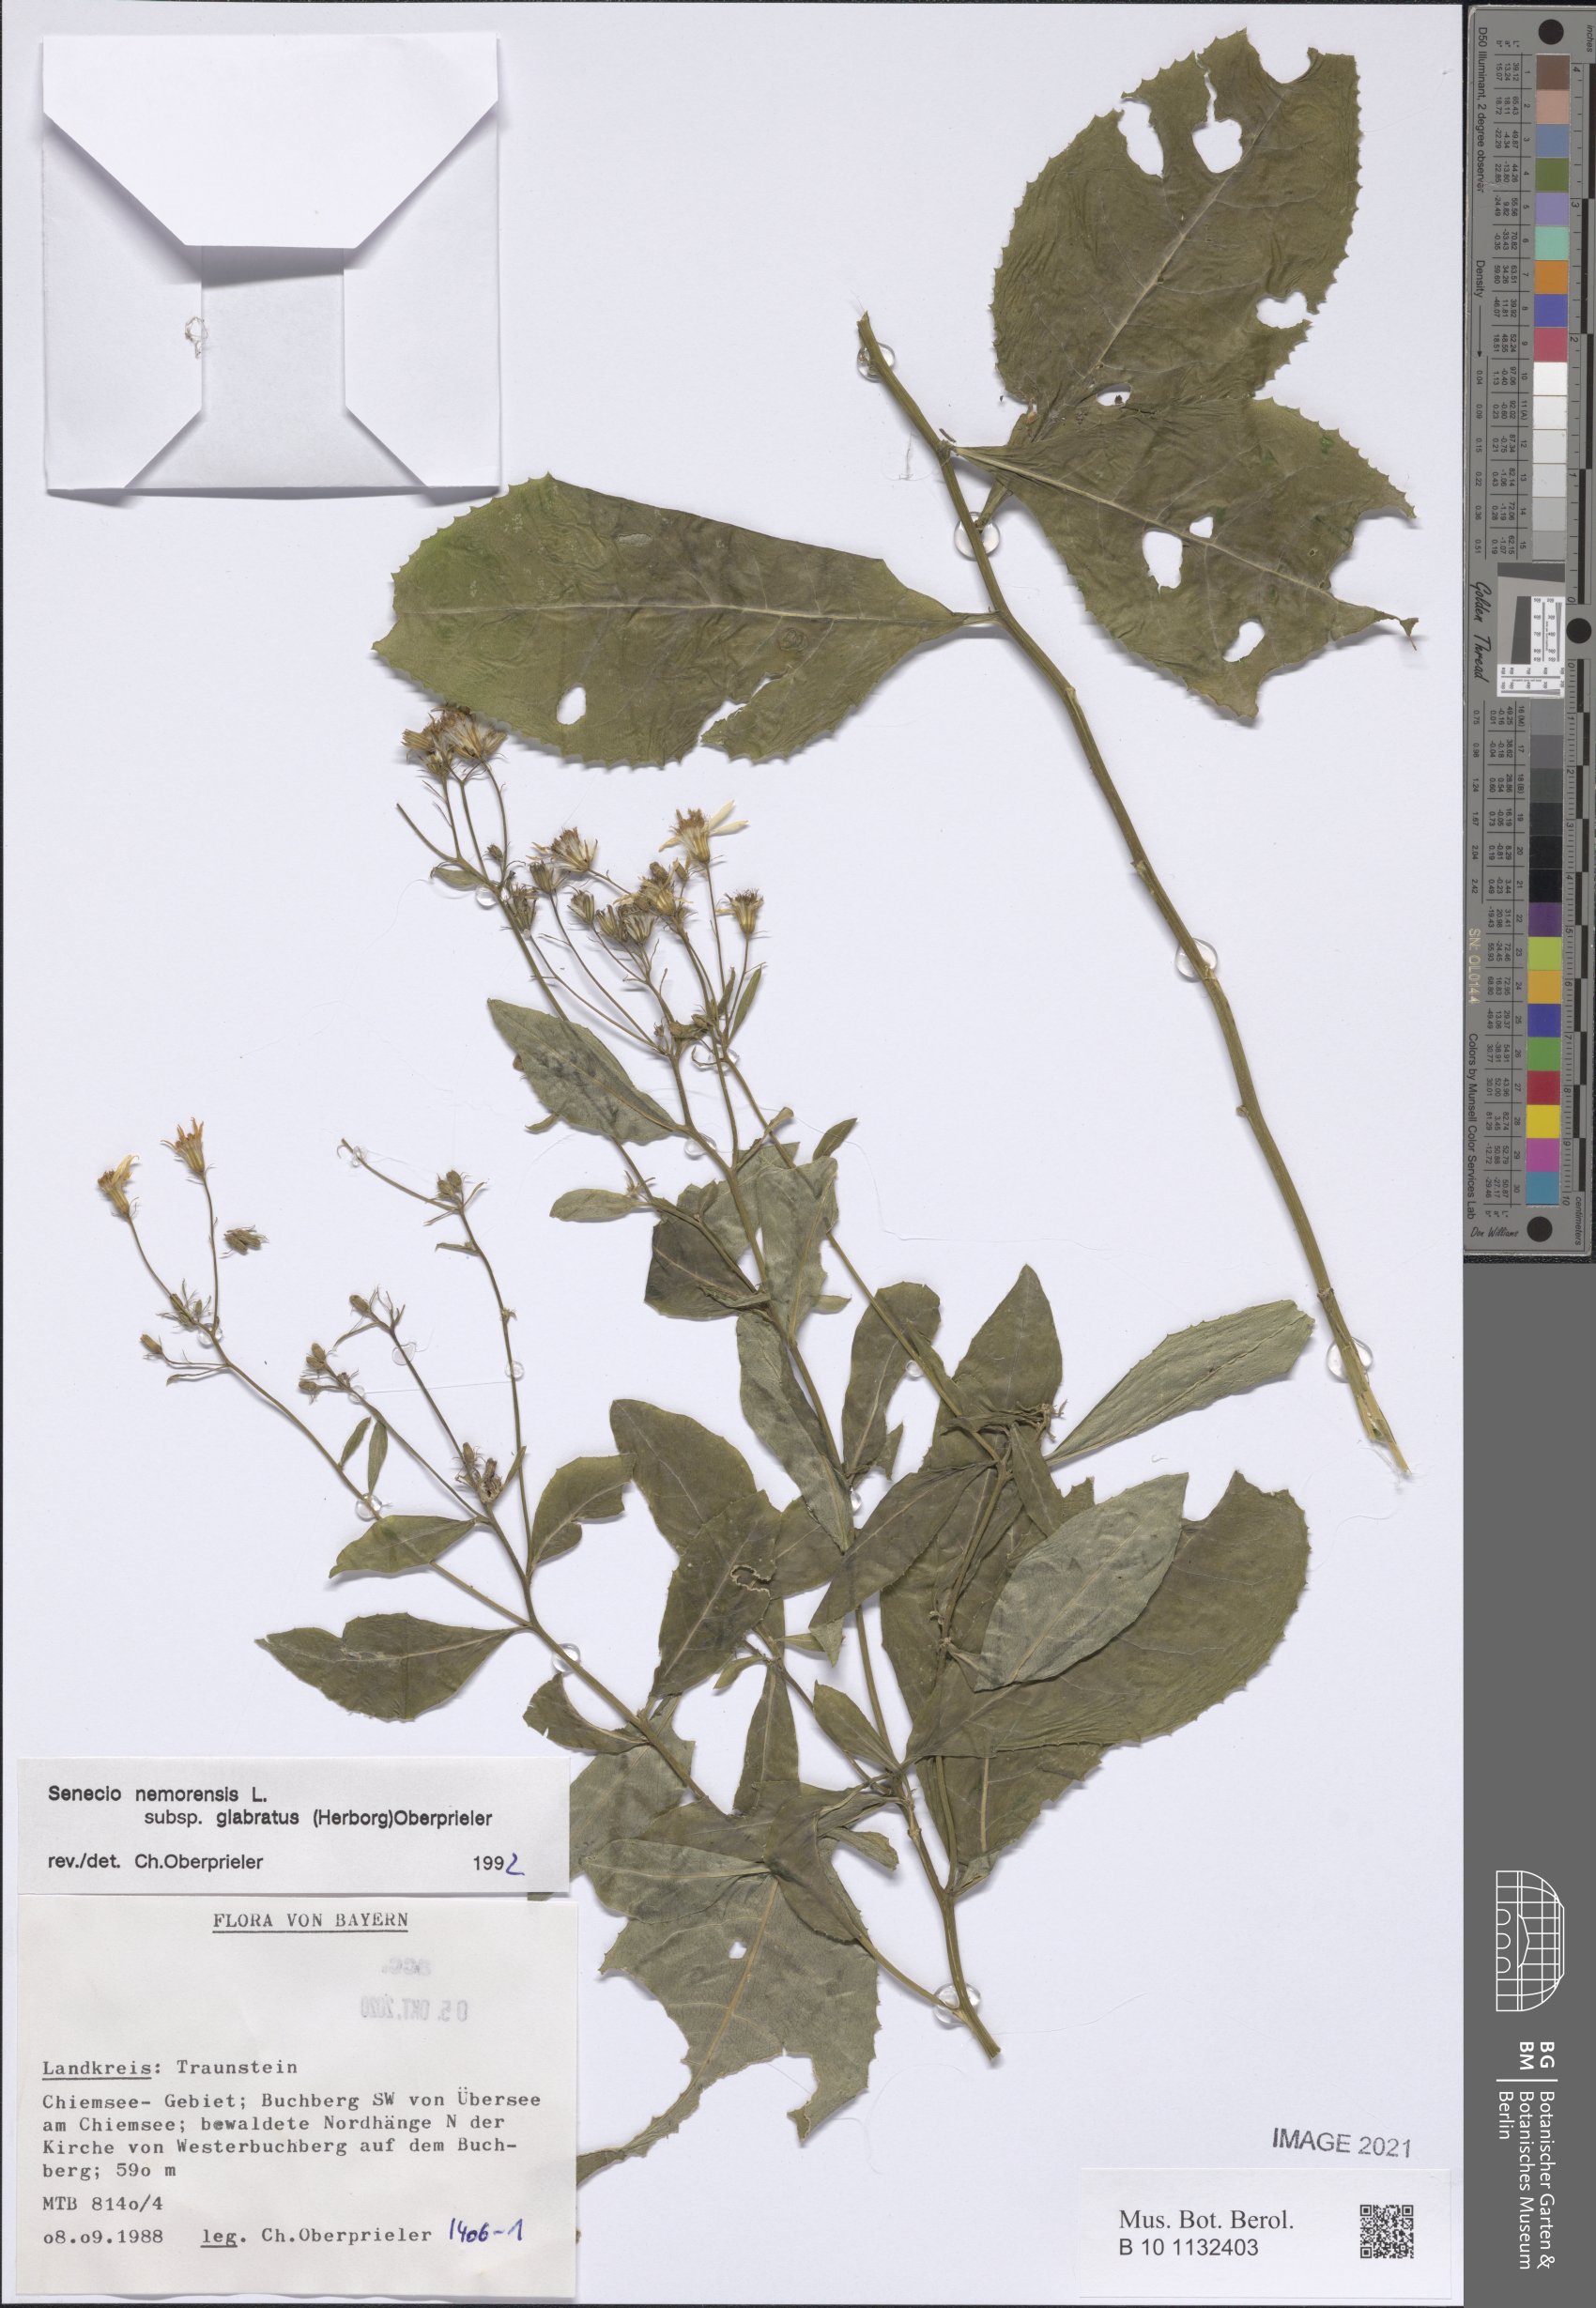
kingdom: Plantae
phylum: Tracheophyta
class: Magnoliopsida
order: Asterales
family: Asteraceae
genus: Senecio
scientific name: Senecio germanicus
